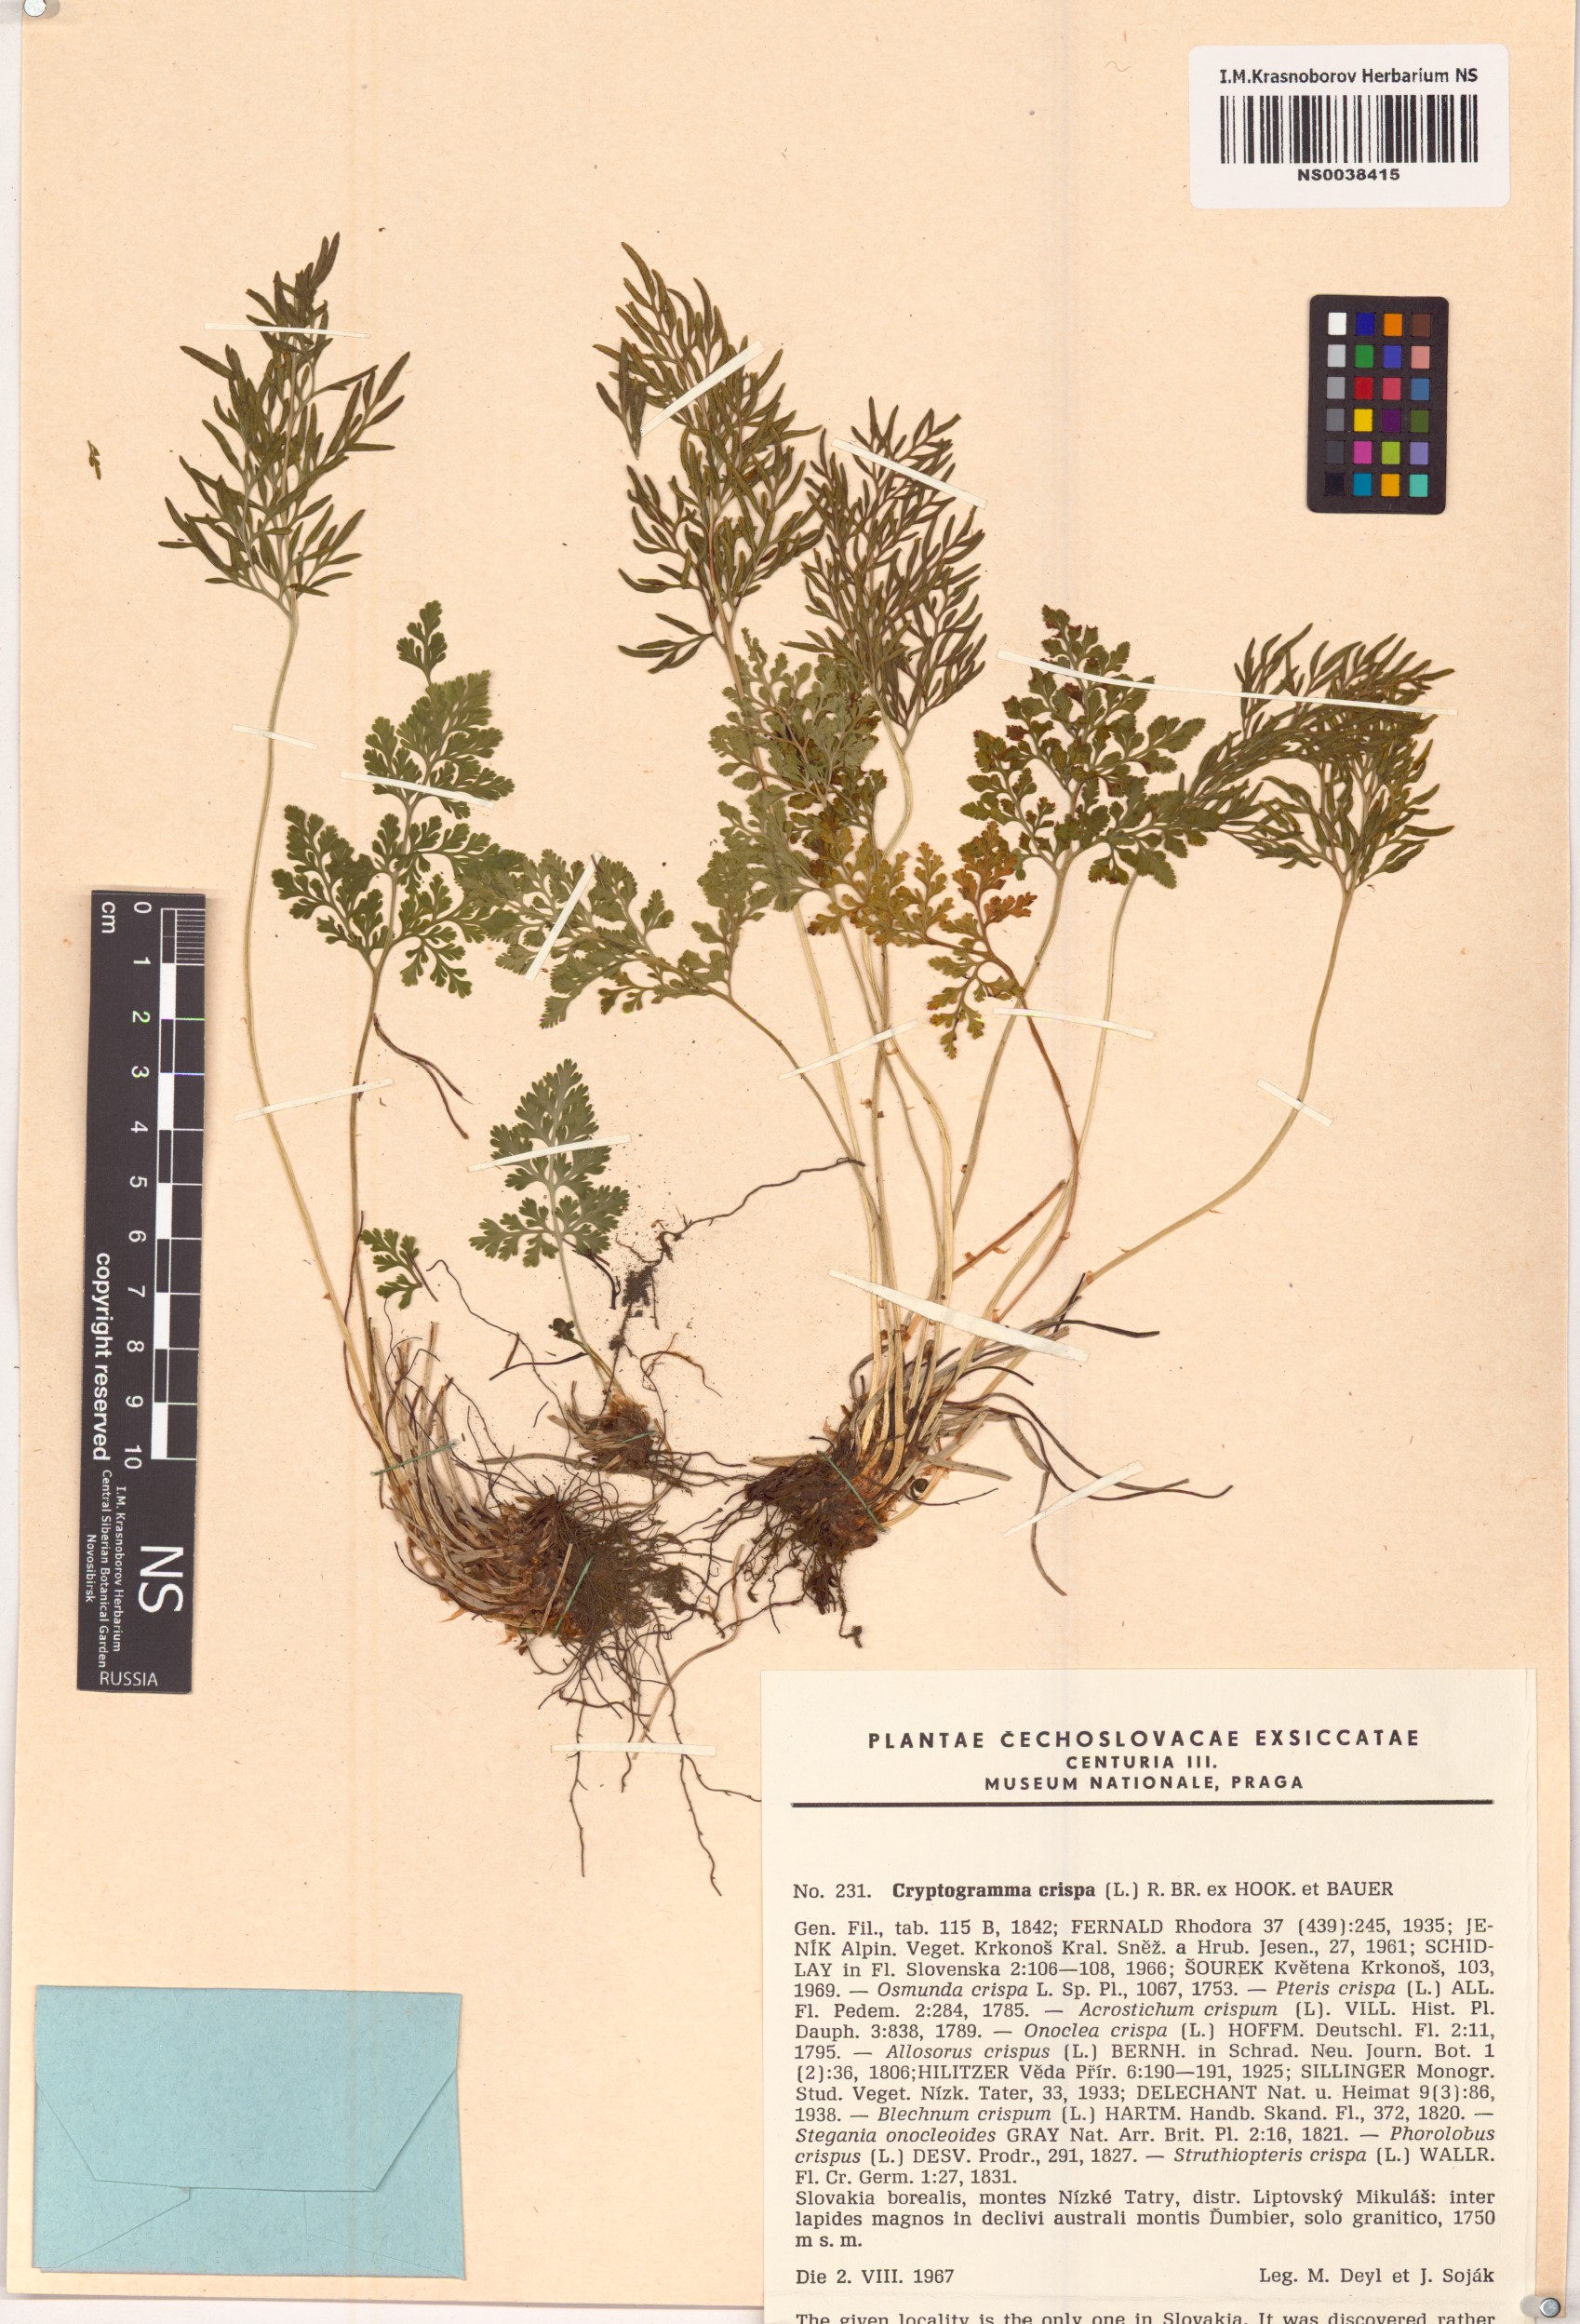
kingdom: Plantae
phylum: Tracheophyta
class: Polypodiopsida
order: Polypodiales
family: Pteridaceae
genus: Cryptogramma
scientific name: Cryptogramma crispa
